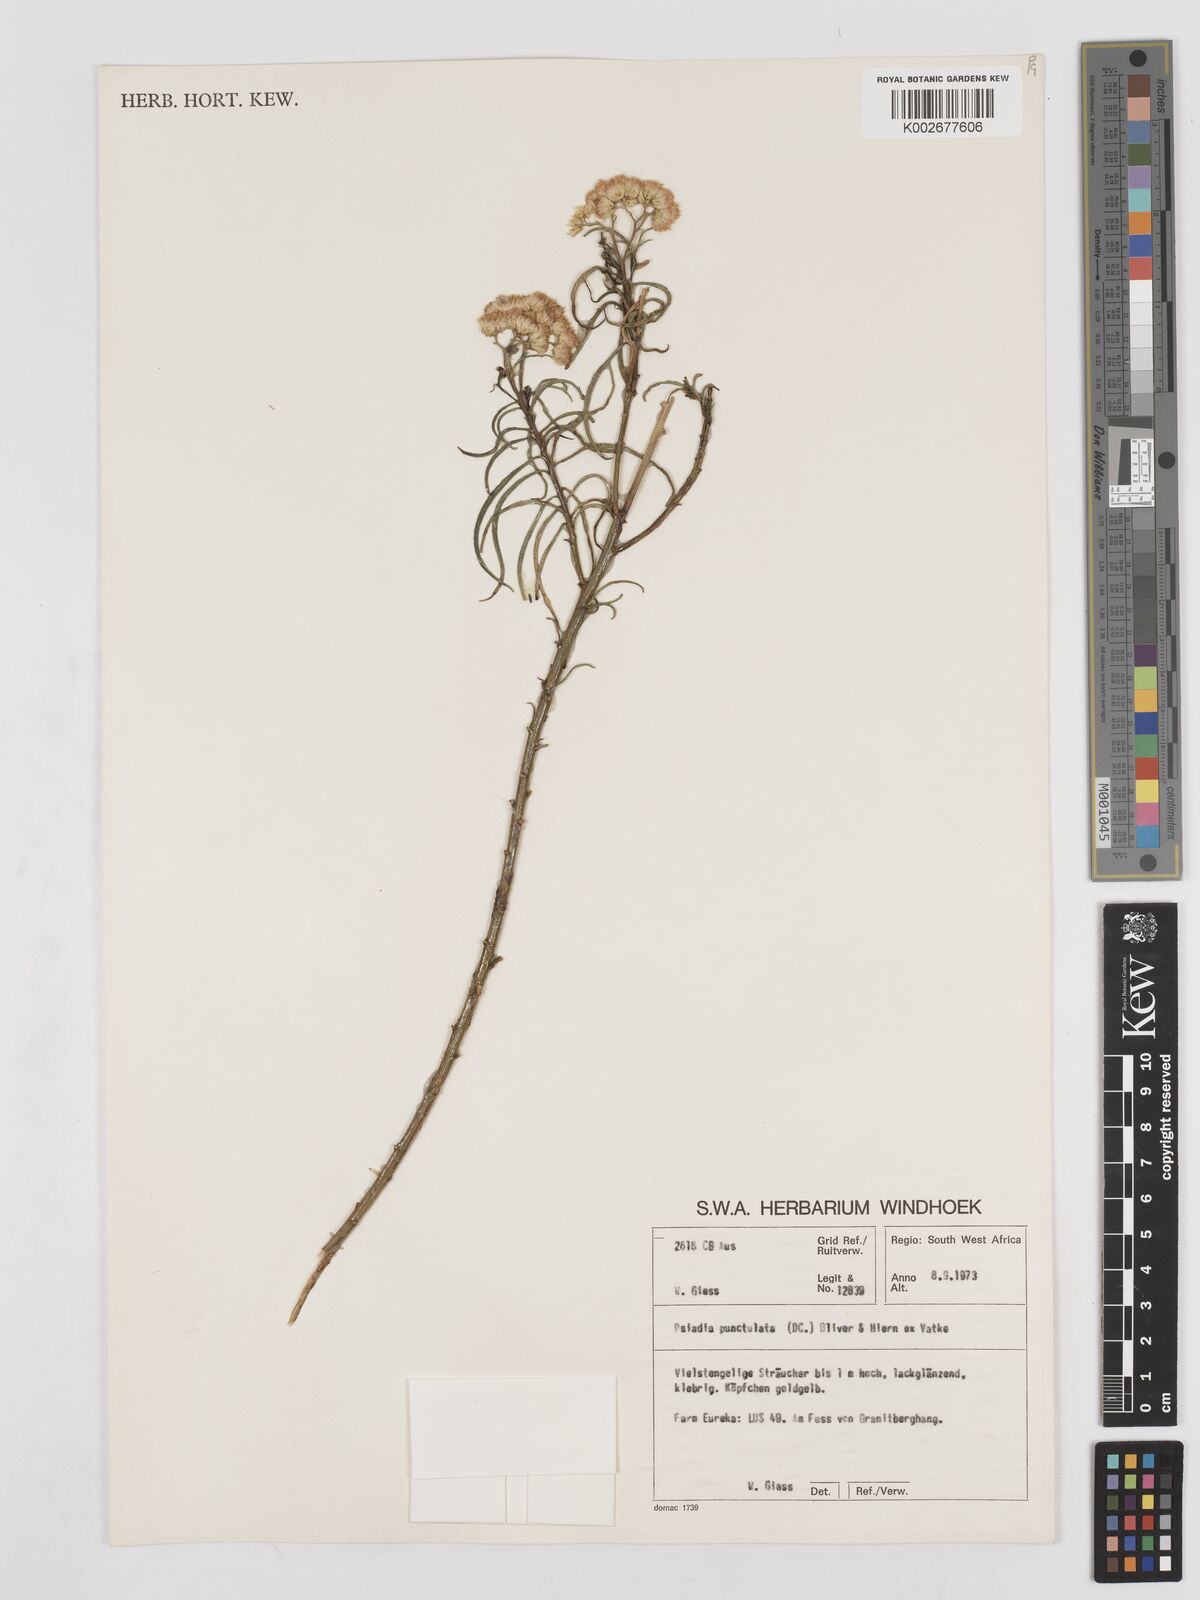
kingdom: Plantae
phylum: Tracheophyta
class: Magnoliopsida
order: Asterales
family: Asteraceae
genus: Psiadia
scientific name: Psiadia punctulata
